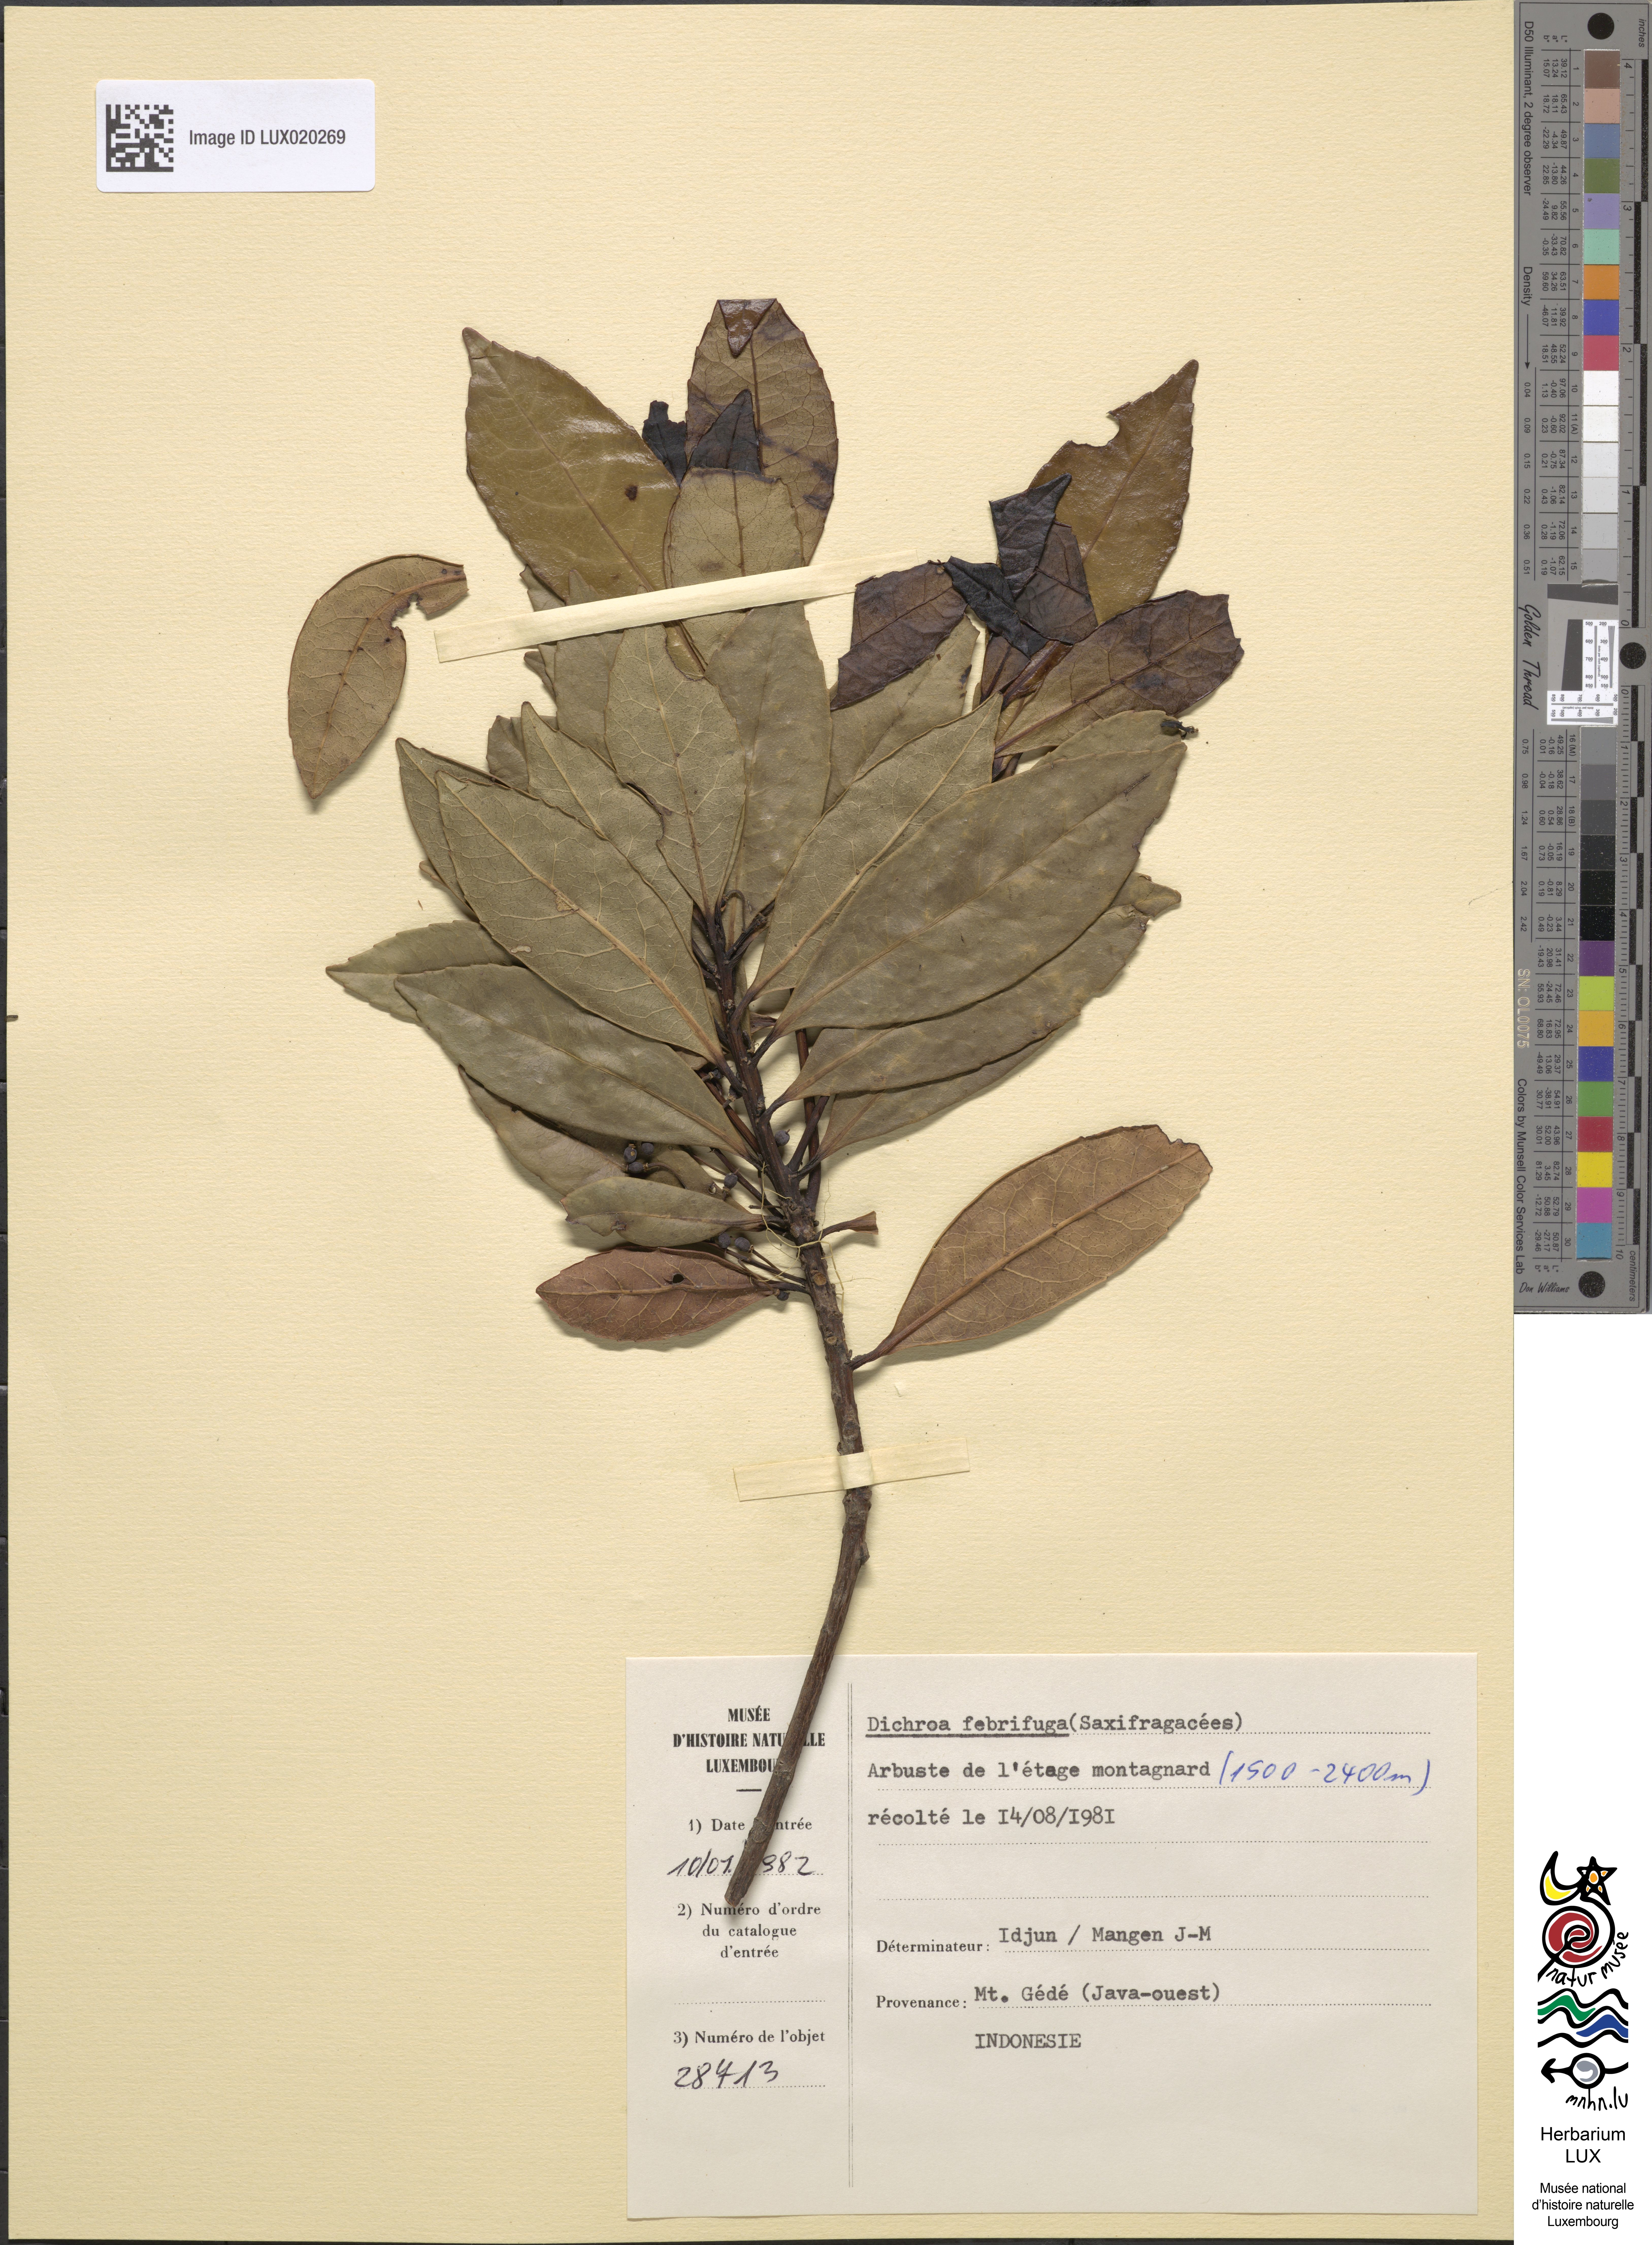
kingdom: Plantae
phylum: Tracheophyta
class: Magnoliopsida
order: Cornales
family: Hydrangeaceae
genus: Hydrangea
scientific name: Hydrangea febrifuga
